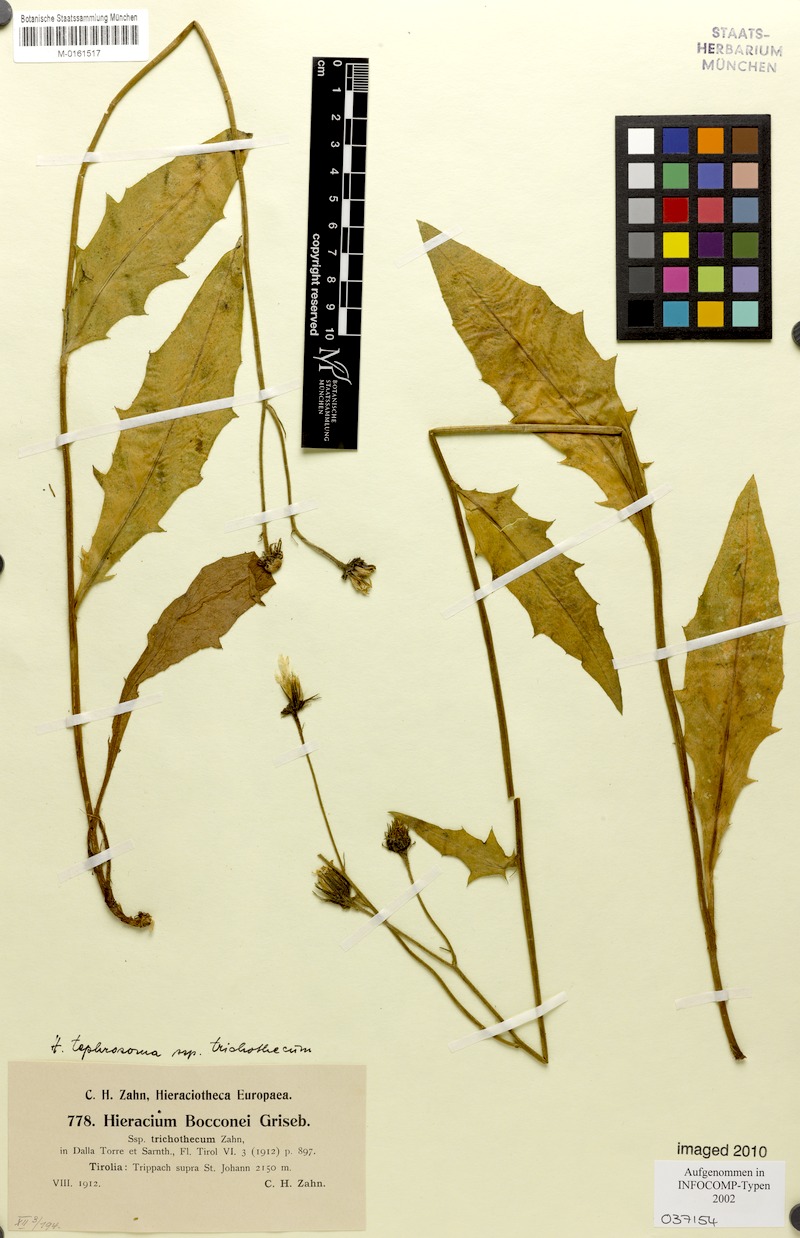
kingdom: Plantae
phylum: Tracheophyta
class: Magnoliopsida
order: Asterales
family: Asteraceae
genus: Hieracium
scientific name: Hieracium tephrosoma
